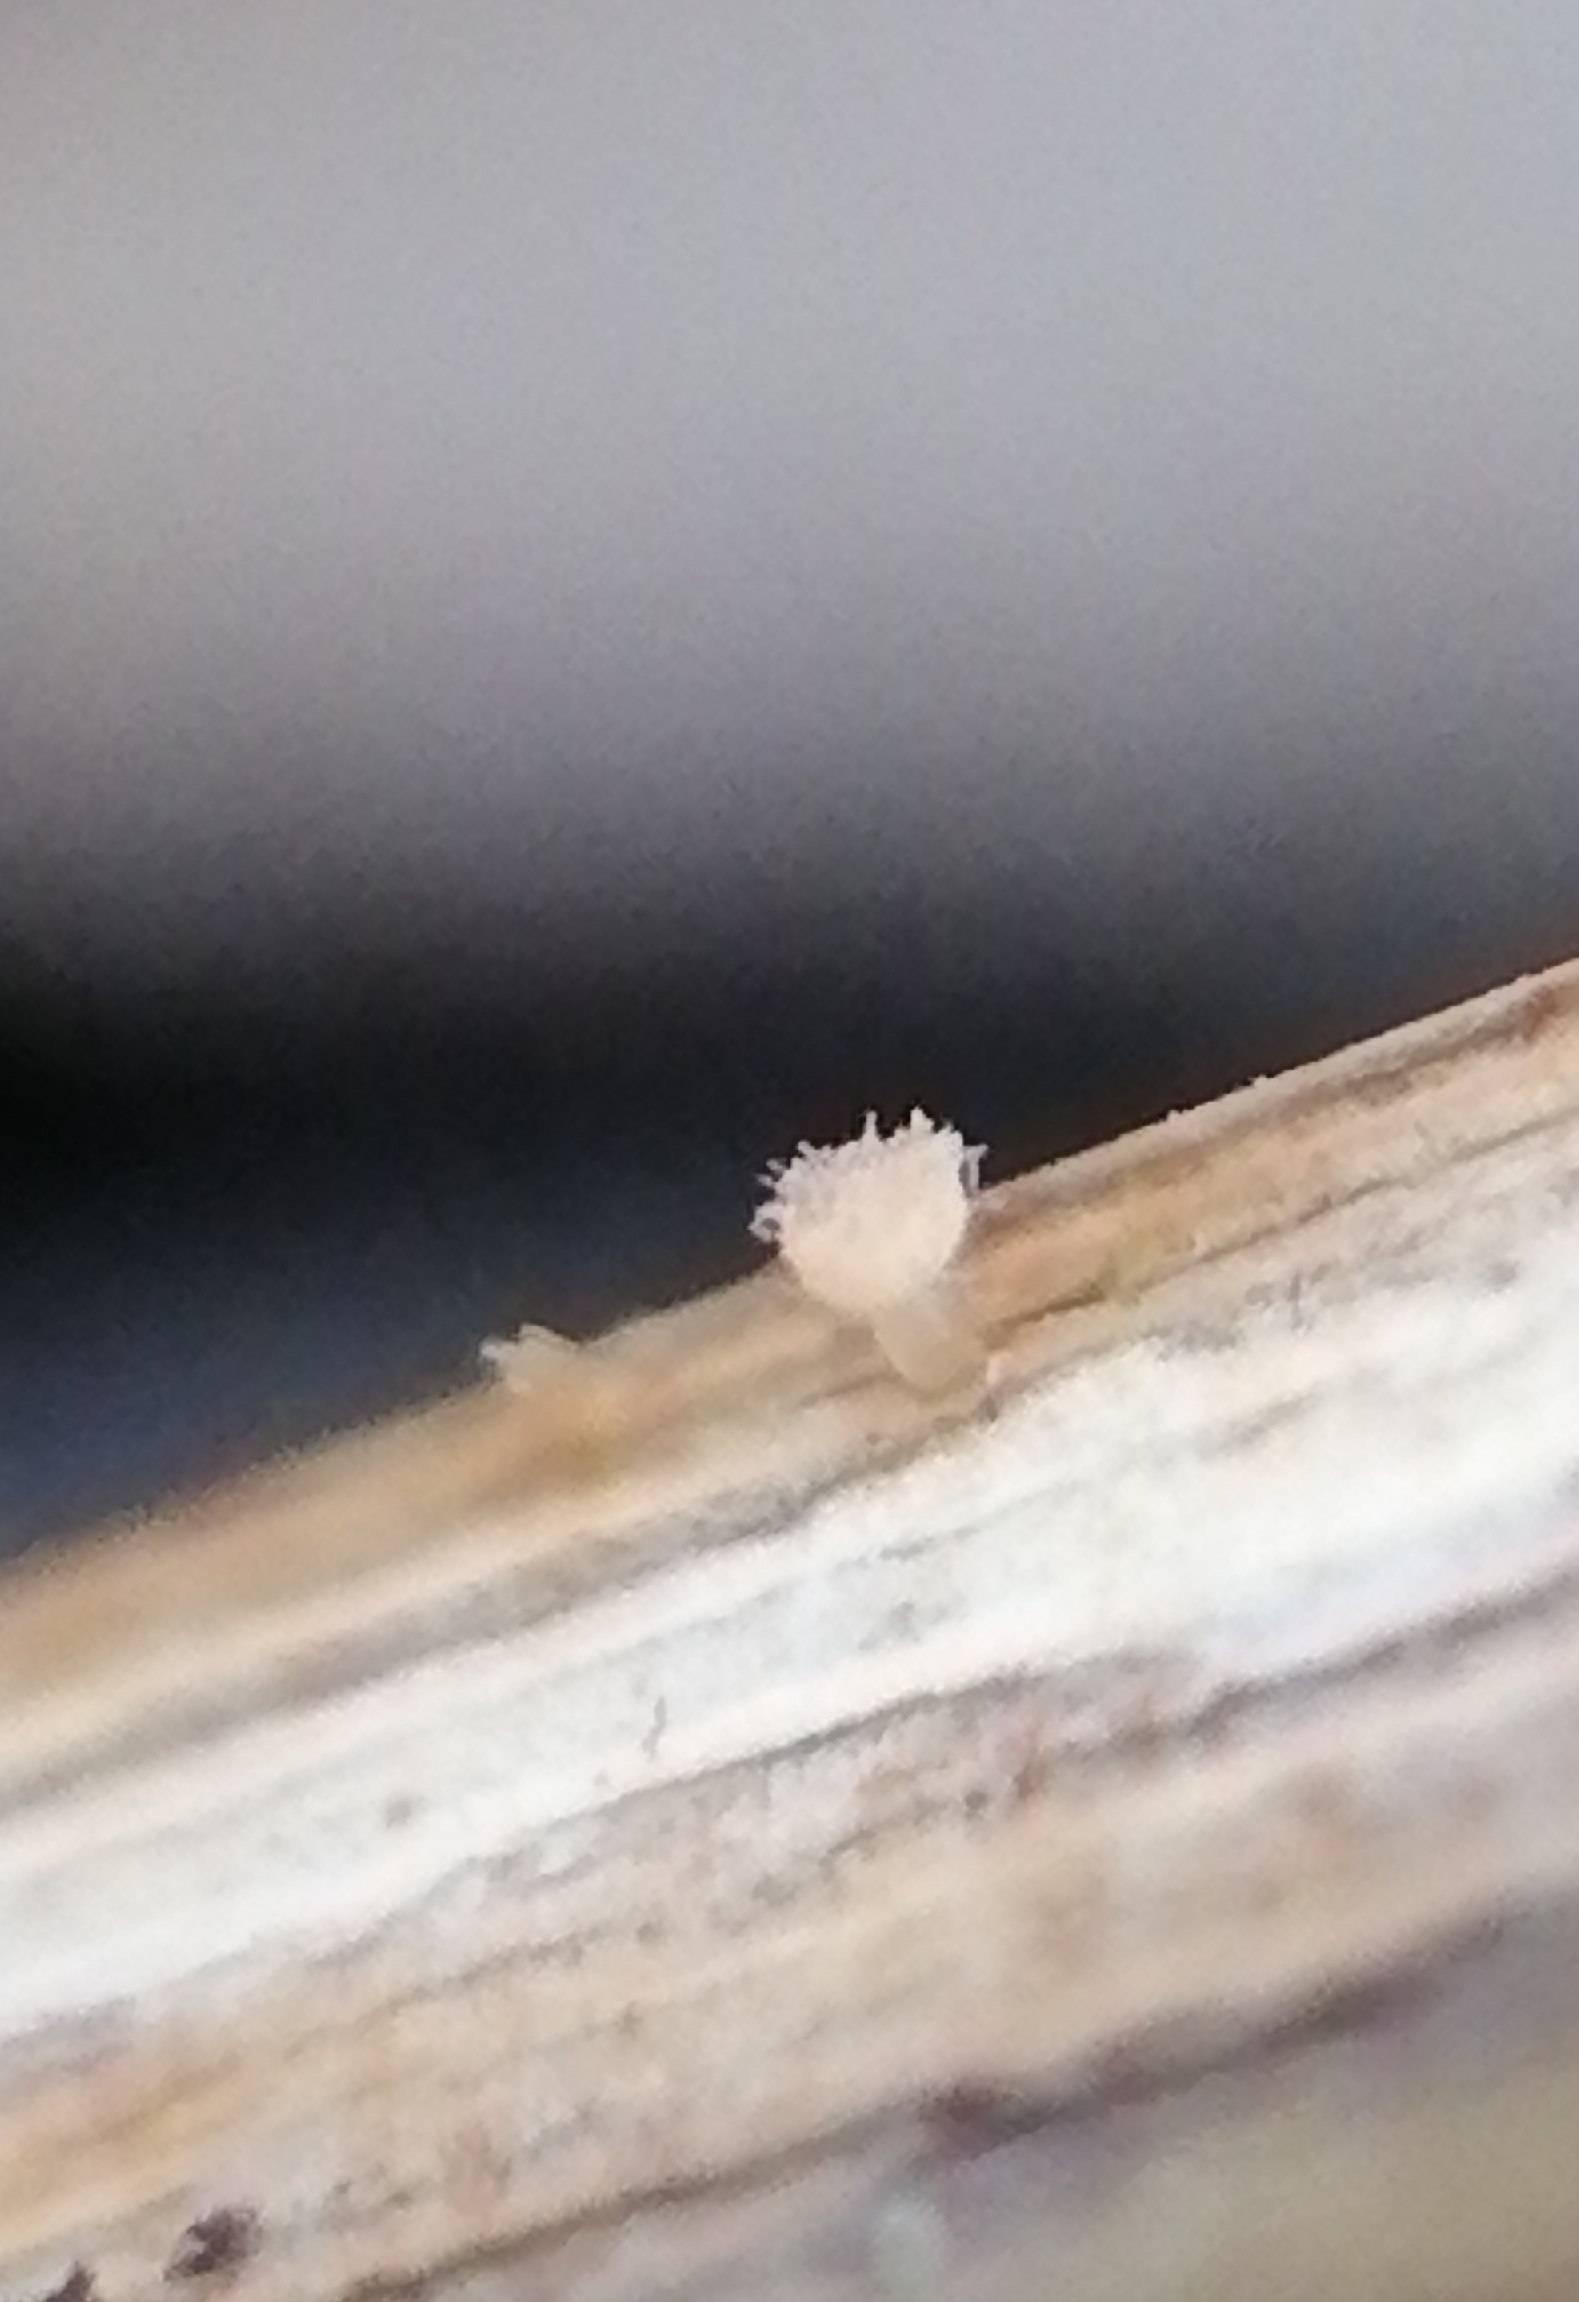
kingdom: Fungi
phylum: Ascomycota
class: Leotiomycetes
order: Helotiales
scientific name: Helotiales
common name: stilkskiveordenen
